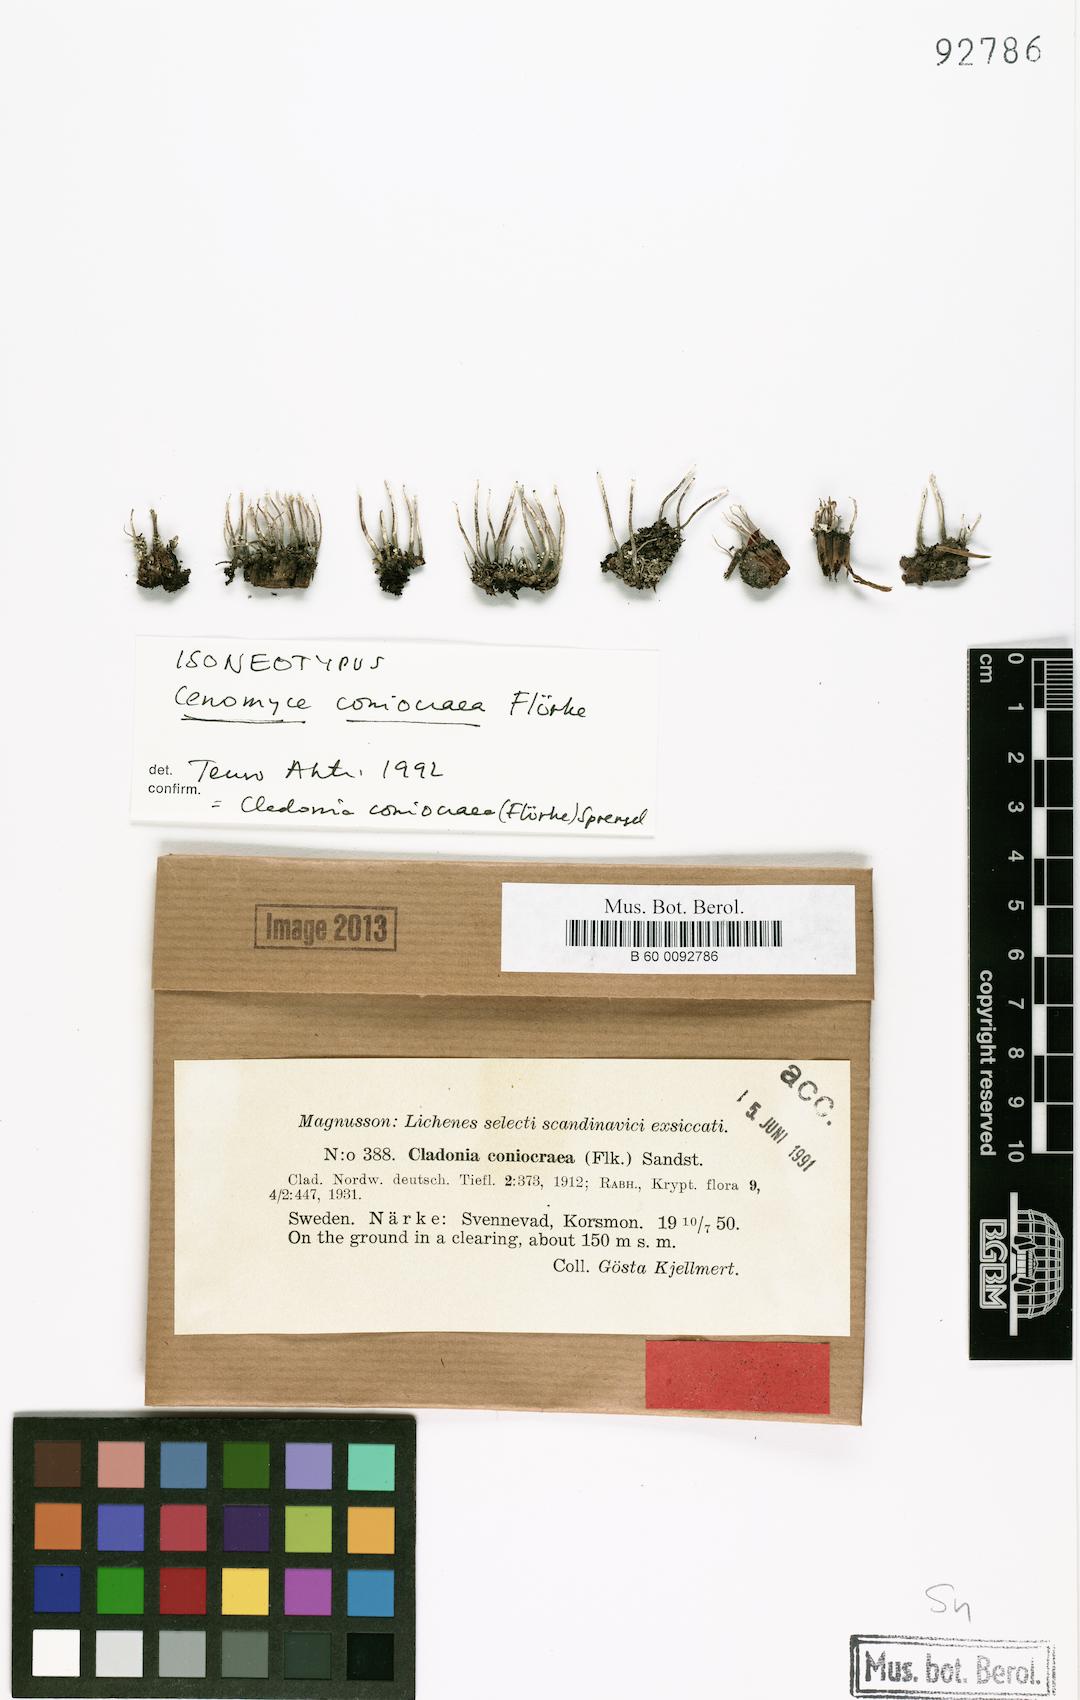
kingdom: Fungi
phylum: Ascomycota
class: Lecanoromycetes
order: Lecanorales
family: Cladoniaceae
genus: Cladonia
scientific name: Cladonia coniocraea
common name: Common powderhorn
